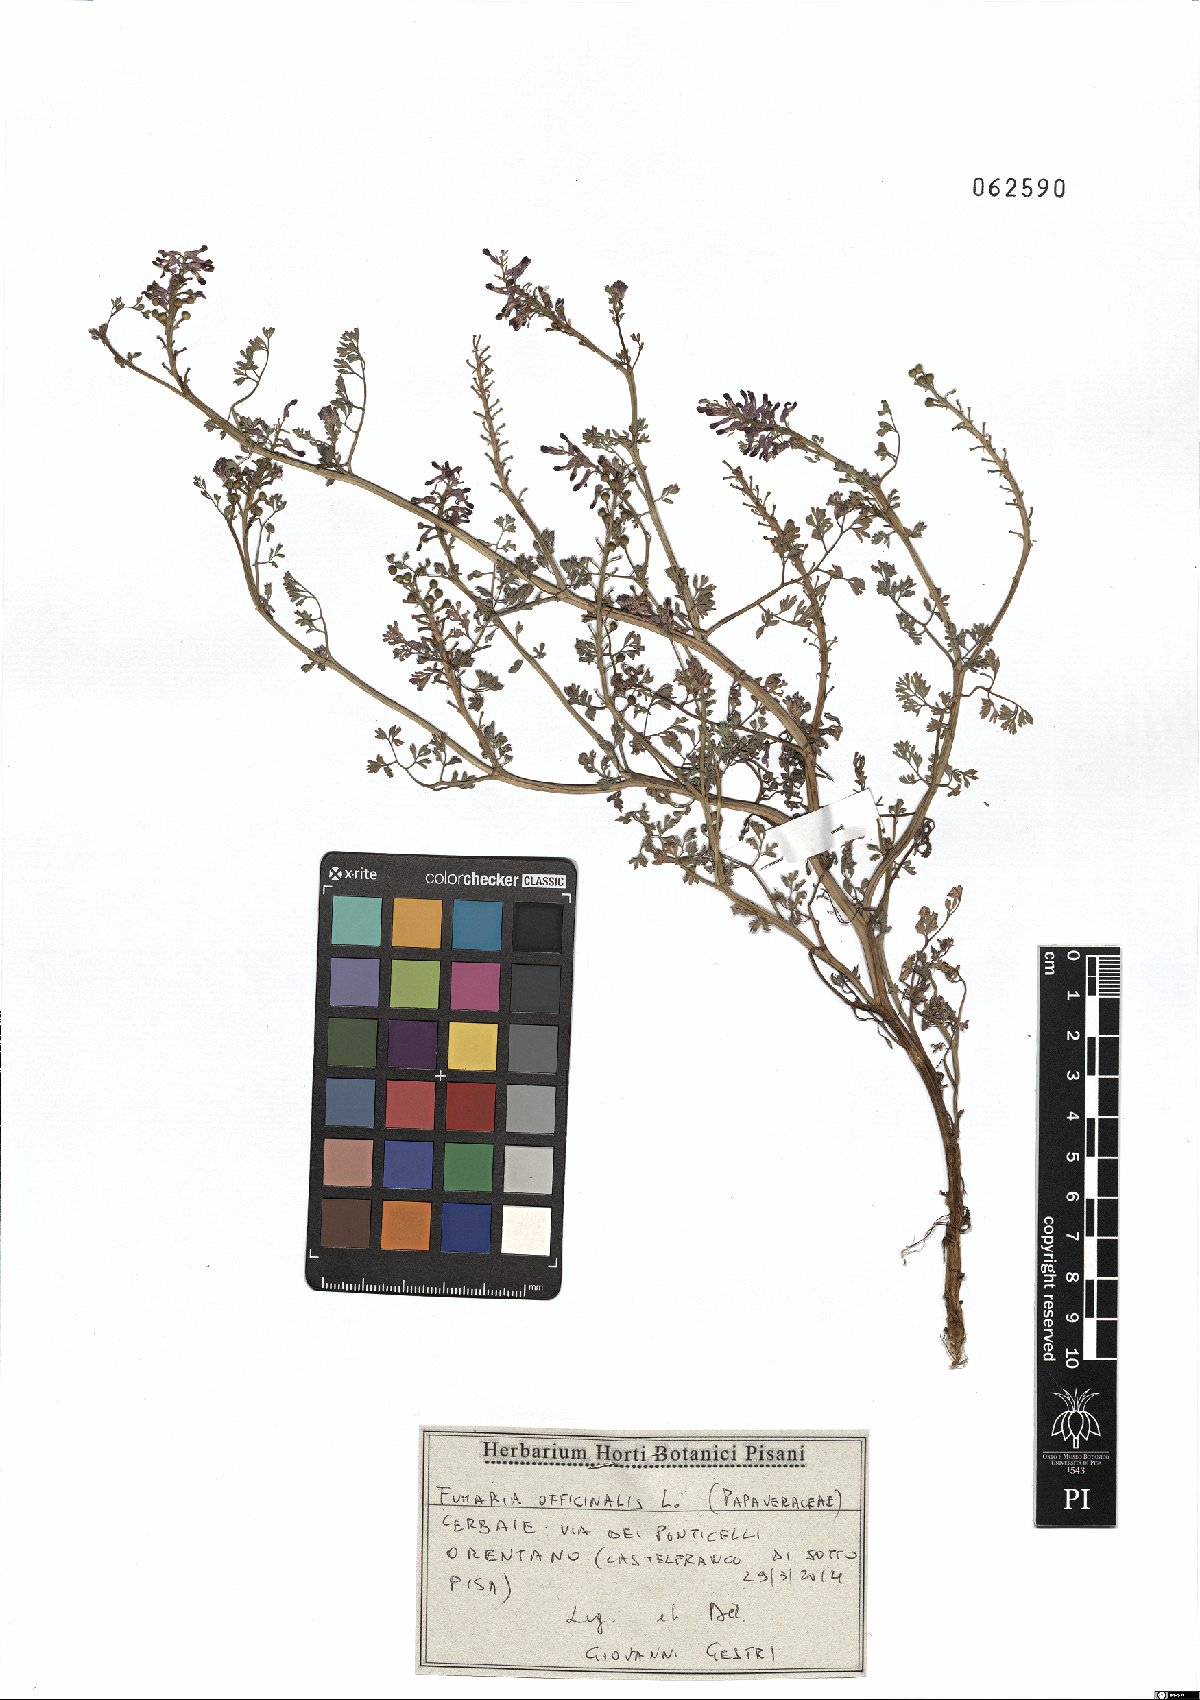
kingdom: Plantae
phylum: Tracheophyta
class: Magnoliopsida
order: Ranunculales
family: Papaveraceae
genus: Fumaria
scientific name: Fumaria officinalis
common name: Common fumitory
